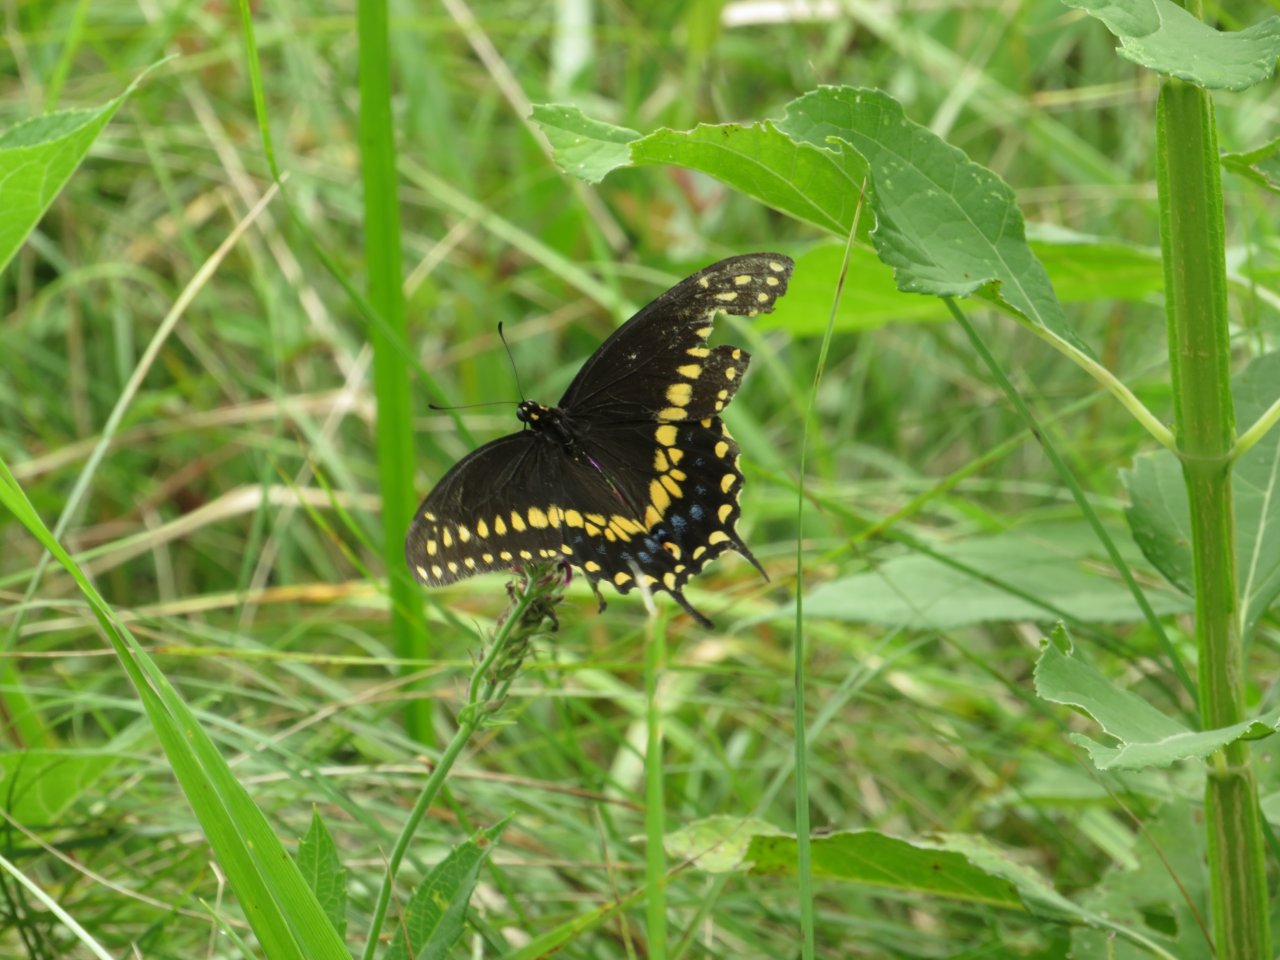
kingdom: Animalia
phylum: Arthropoda
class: Insecta
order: Lepidoptera
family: Papilionidae
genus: Papilio
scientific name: Papilio polyxenes
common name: Black Swallowtail
